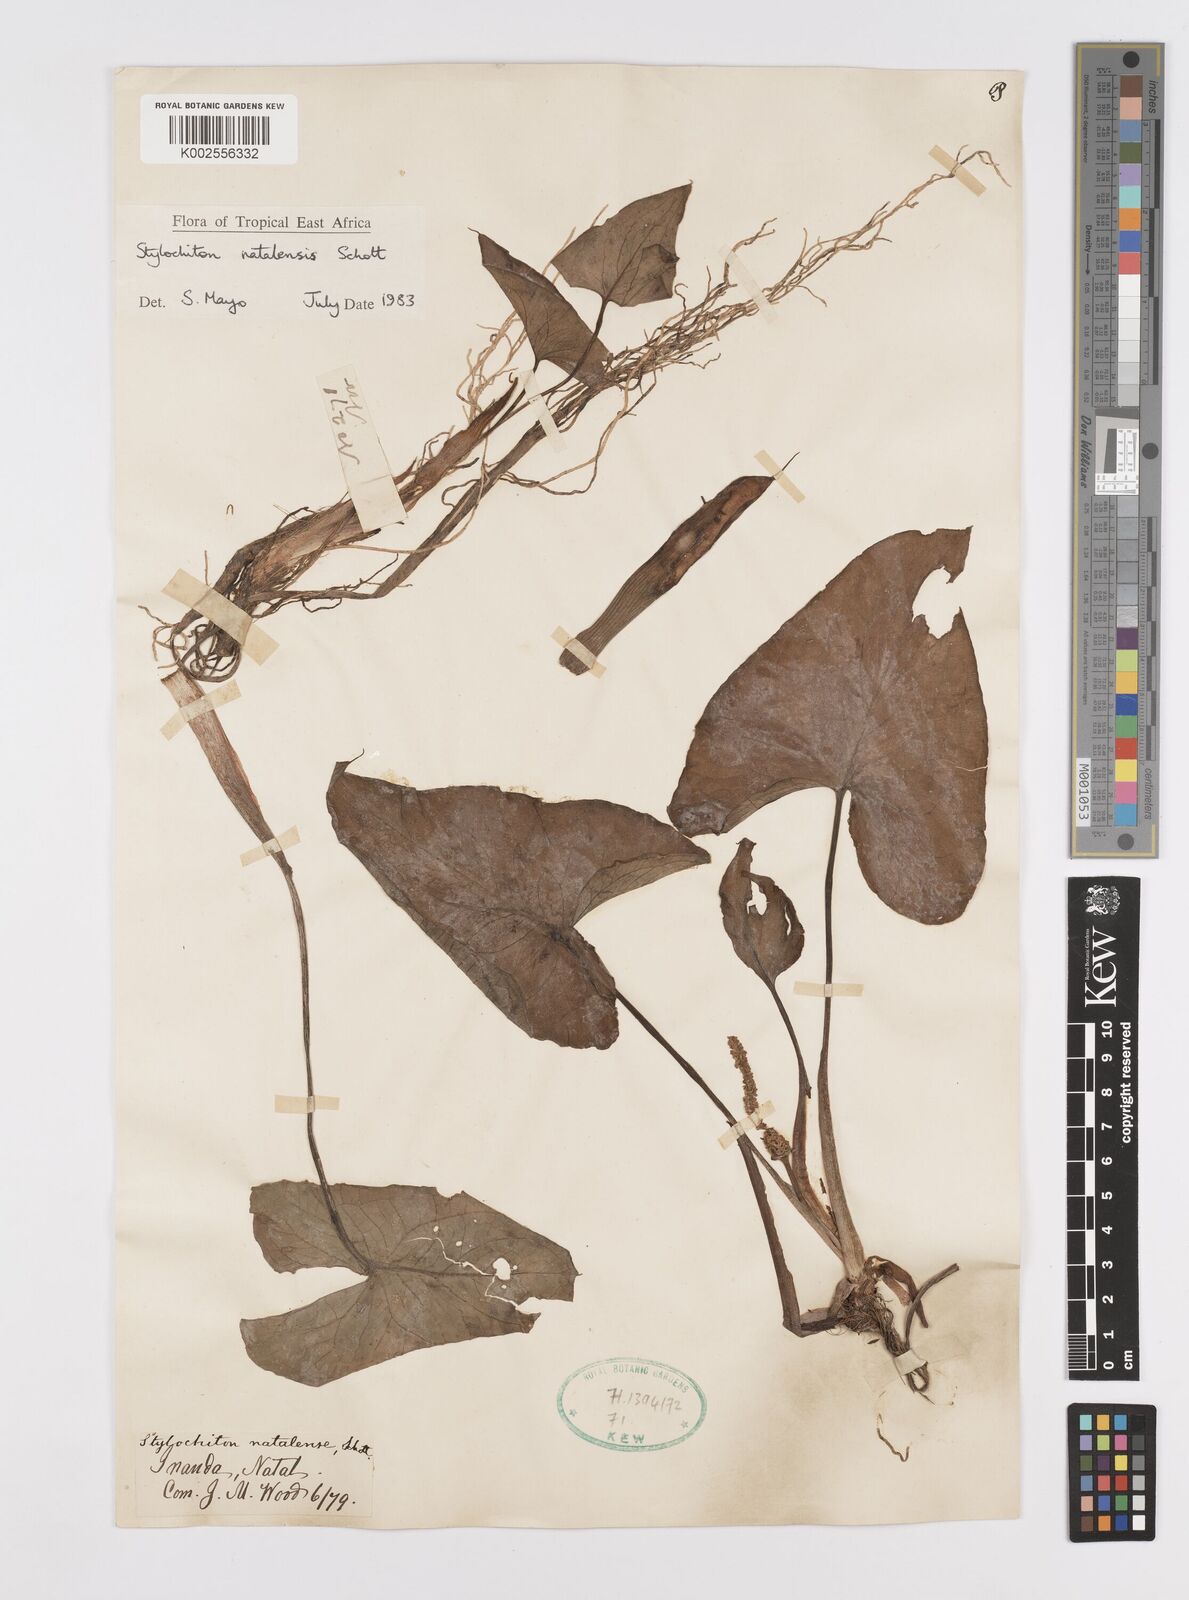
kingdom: Plantae
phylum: Tracheophyta
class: Liliopsida
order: Alismatales
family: Araceae
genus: Stylochaeton
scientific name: Stylochaeton natalense
